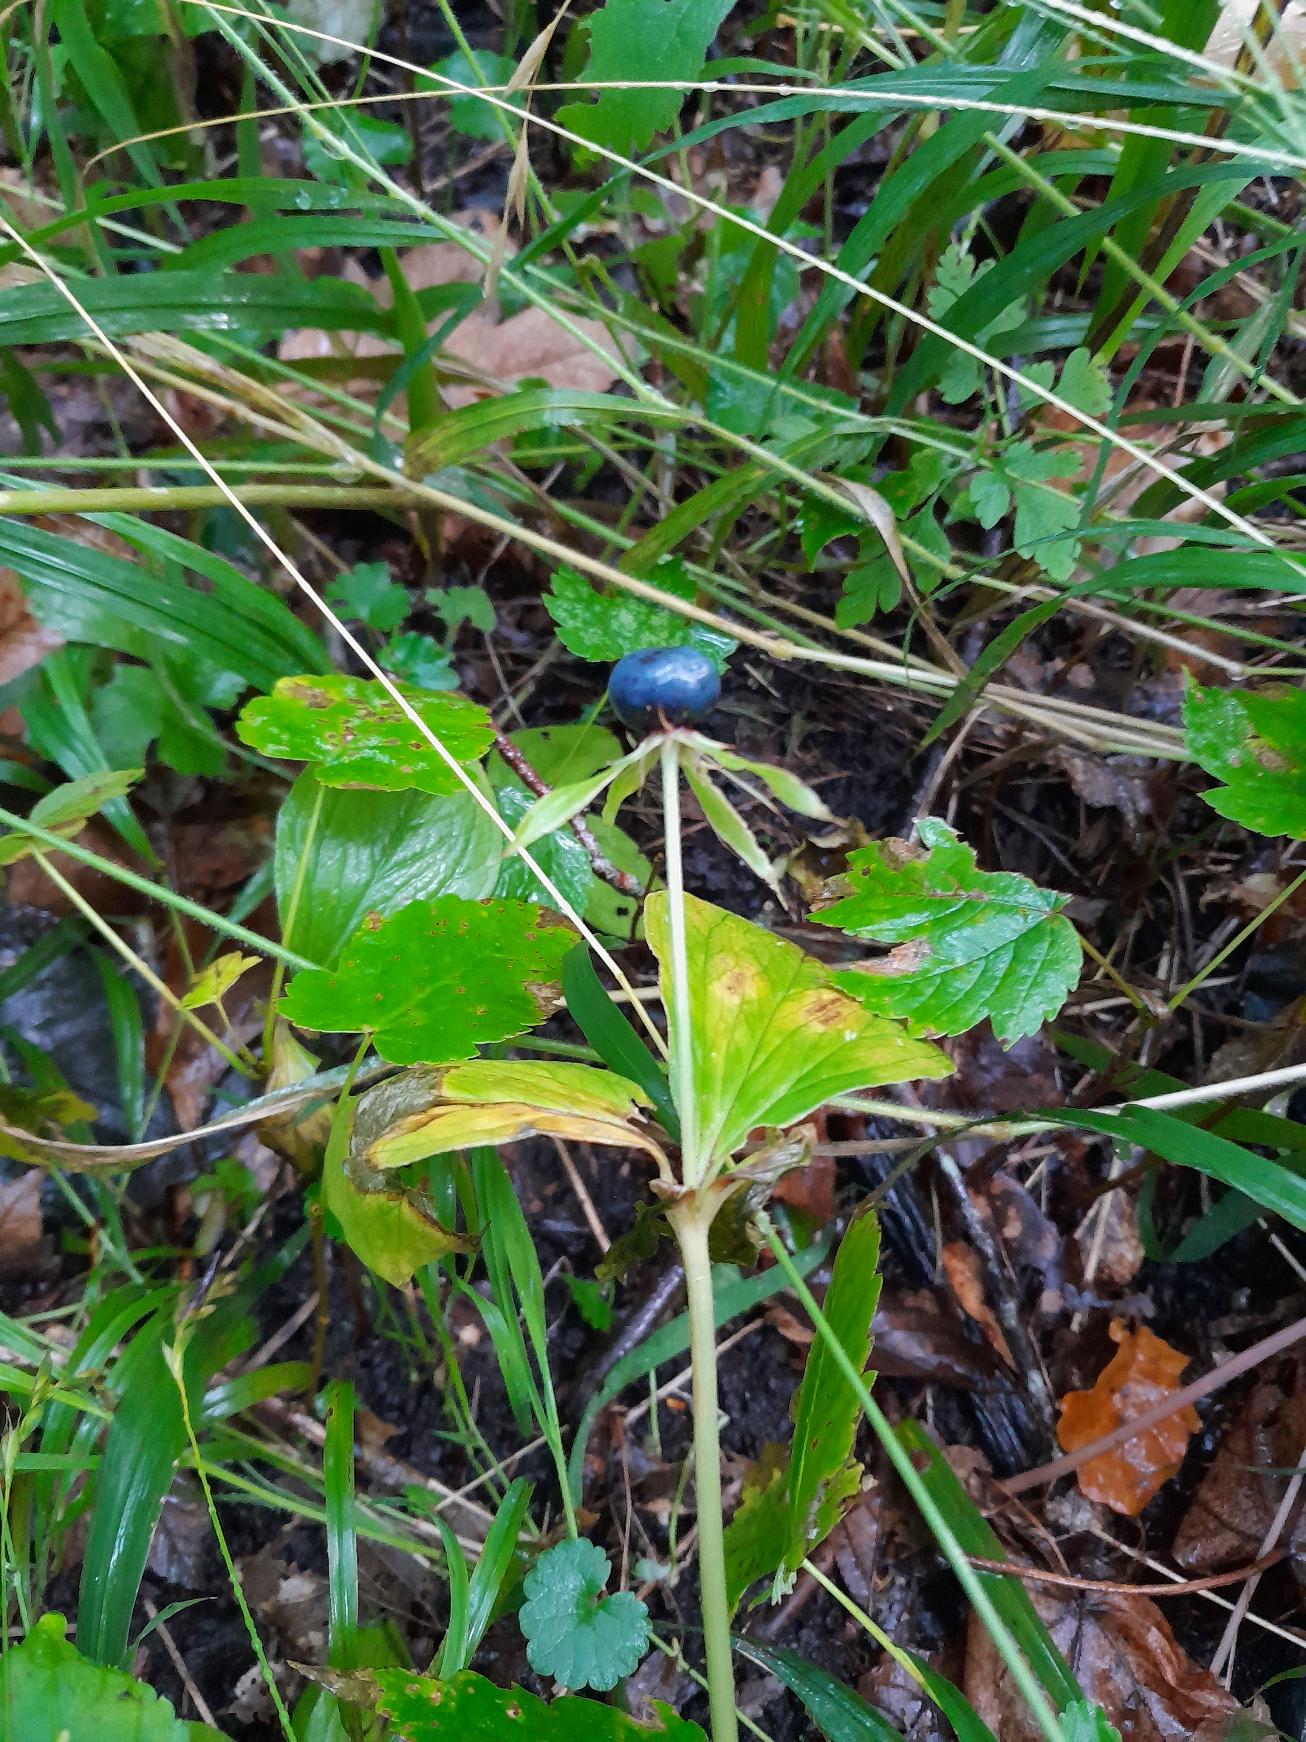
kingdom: Plantae
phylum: Tracheophyta
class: Liliopsida
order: Liliales
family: Melanthiaceae
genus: Paris
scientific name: Paris quadrifolia
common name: Firblad
